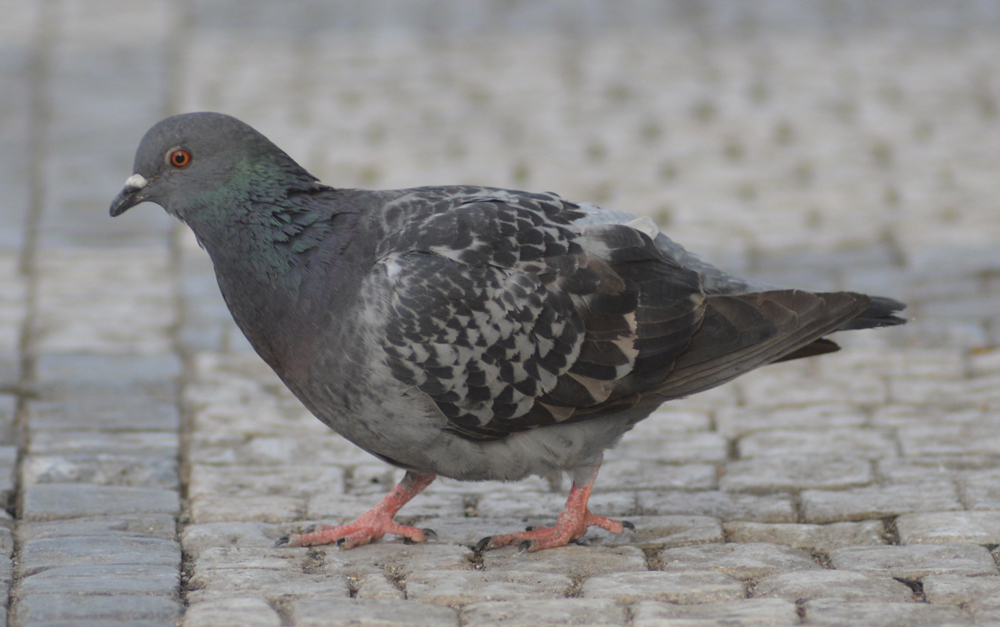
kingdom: Animalia
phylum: Chordata
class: Aves
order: Columbiformes
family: Columbidae
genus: Columba
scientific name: Columba livia
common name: Rock pigeon
